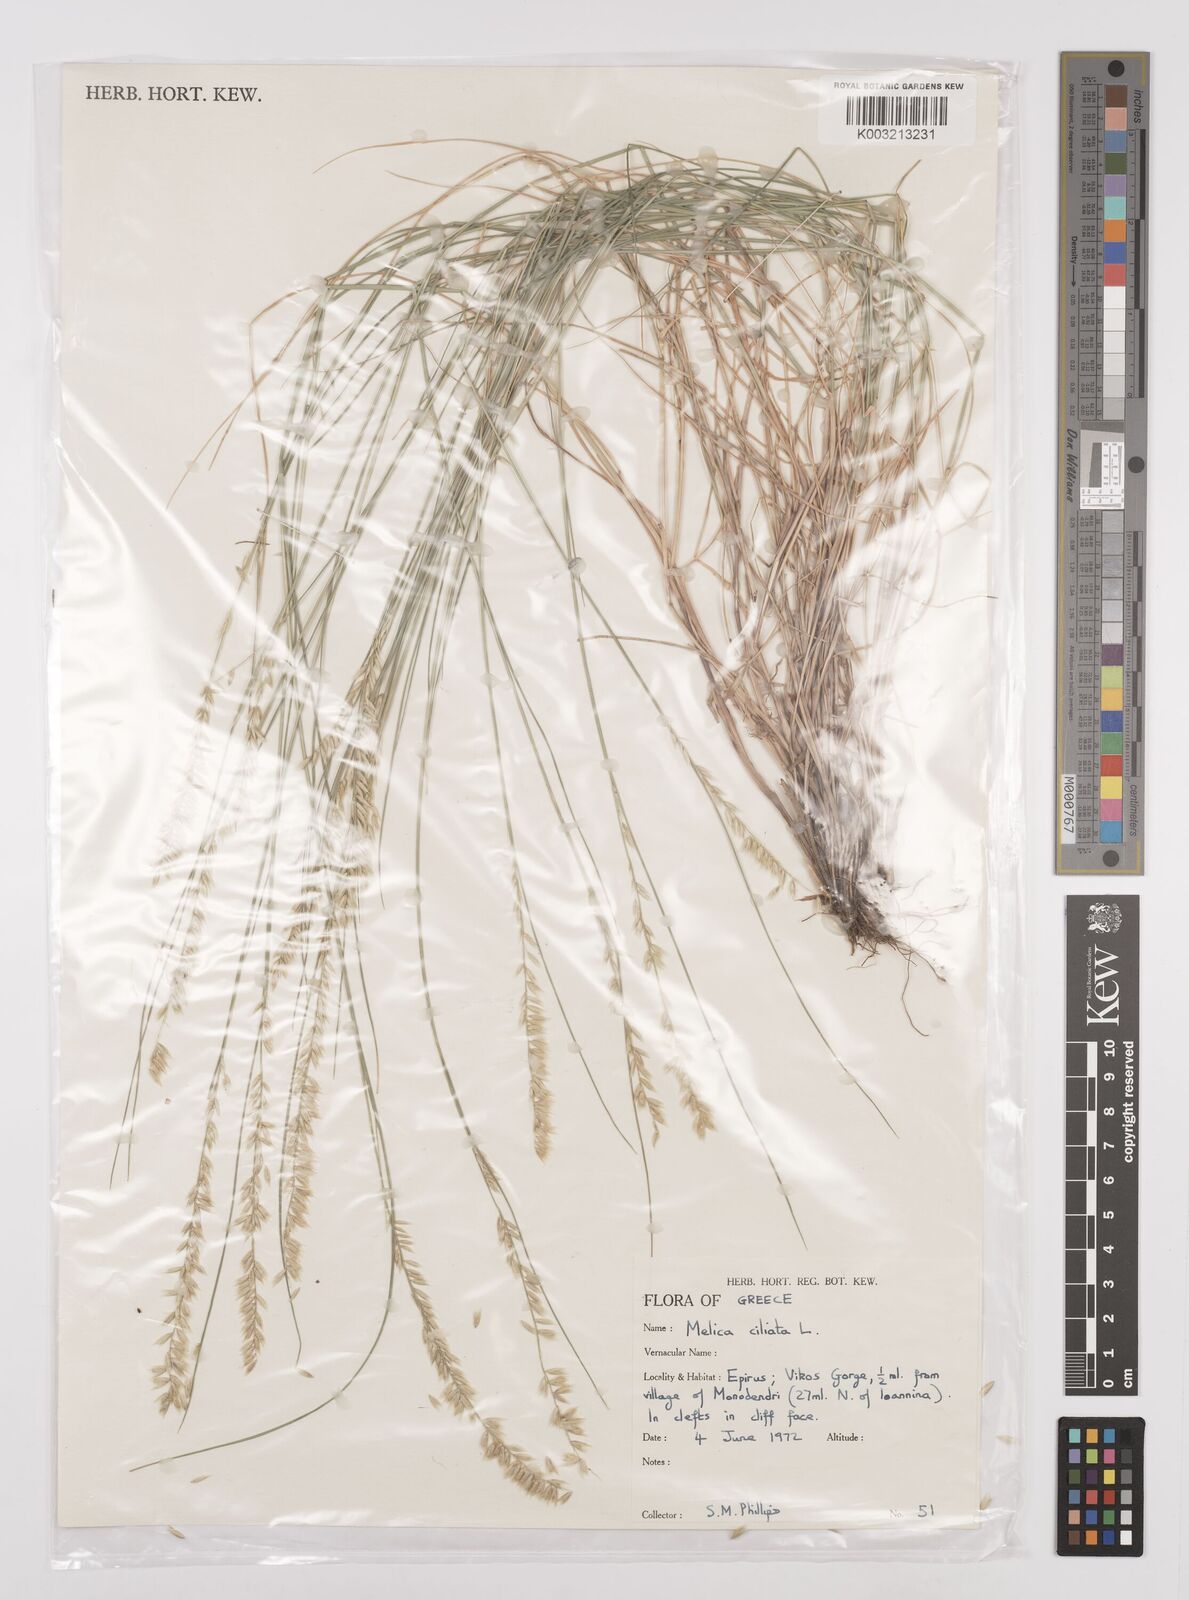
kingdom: Plantae
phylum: Tracheophyta
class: Liliopsida
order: Poales
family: Poaceae
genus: Melica
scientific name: Melica ciliata
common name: Hairy melicgrass
